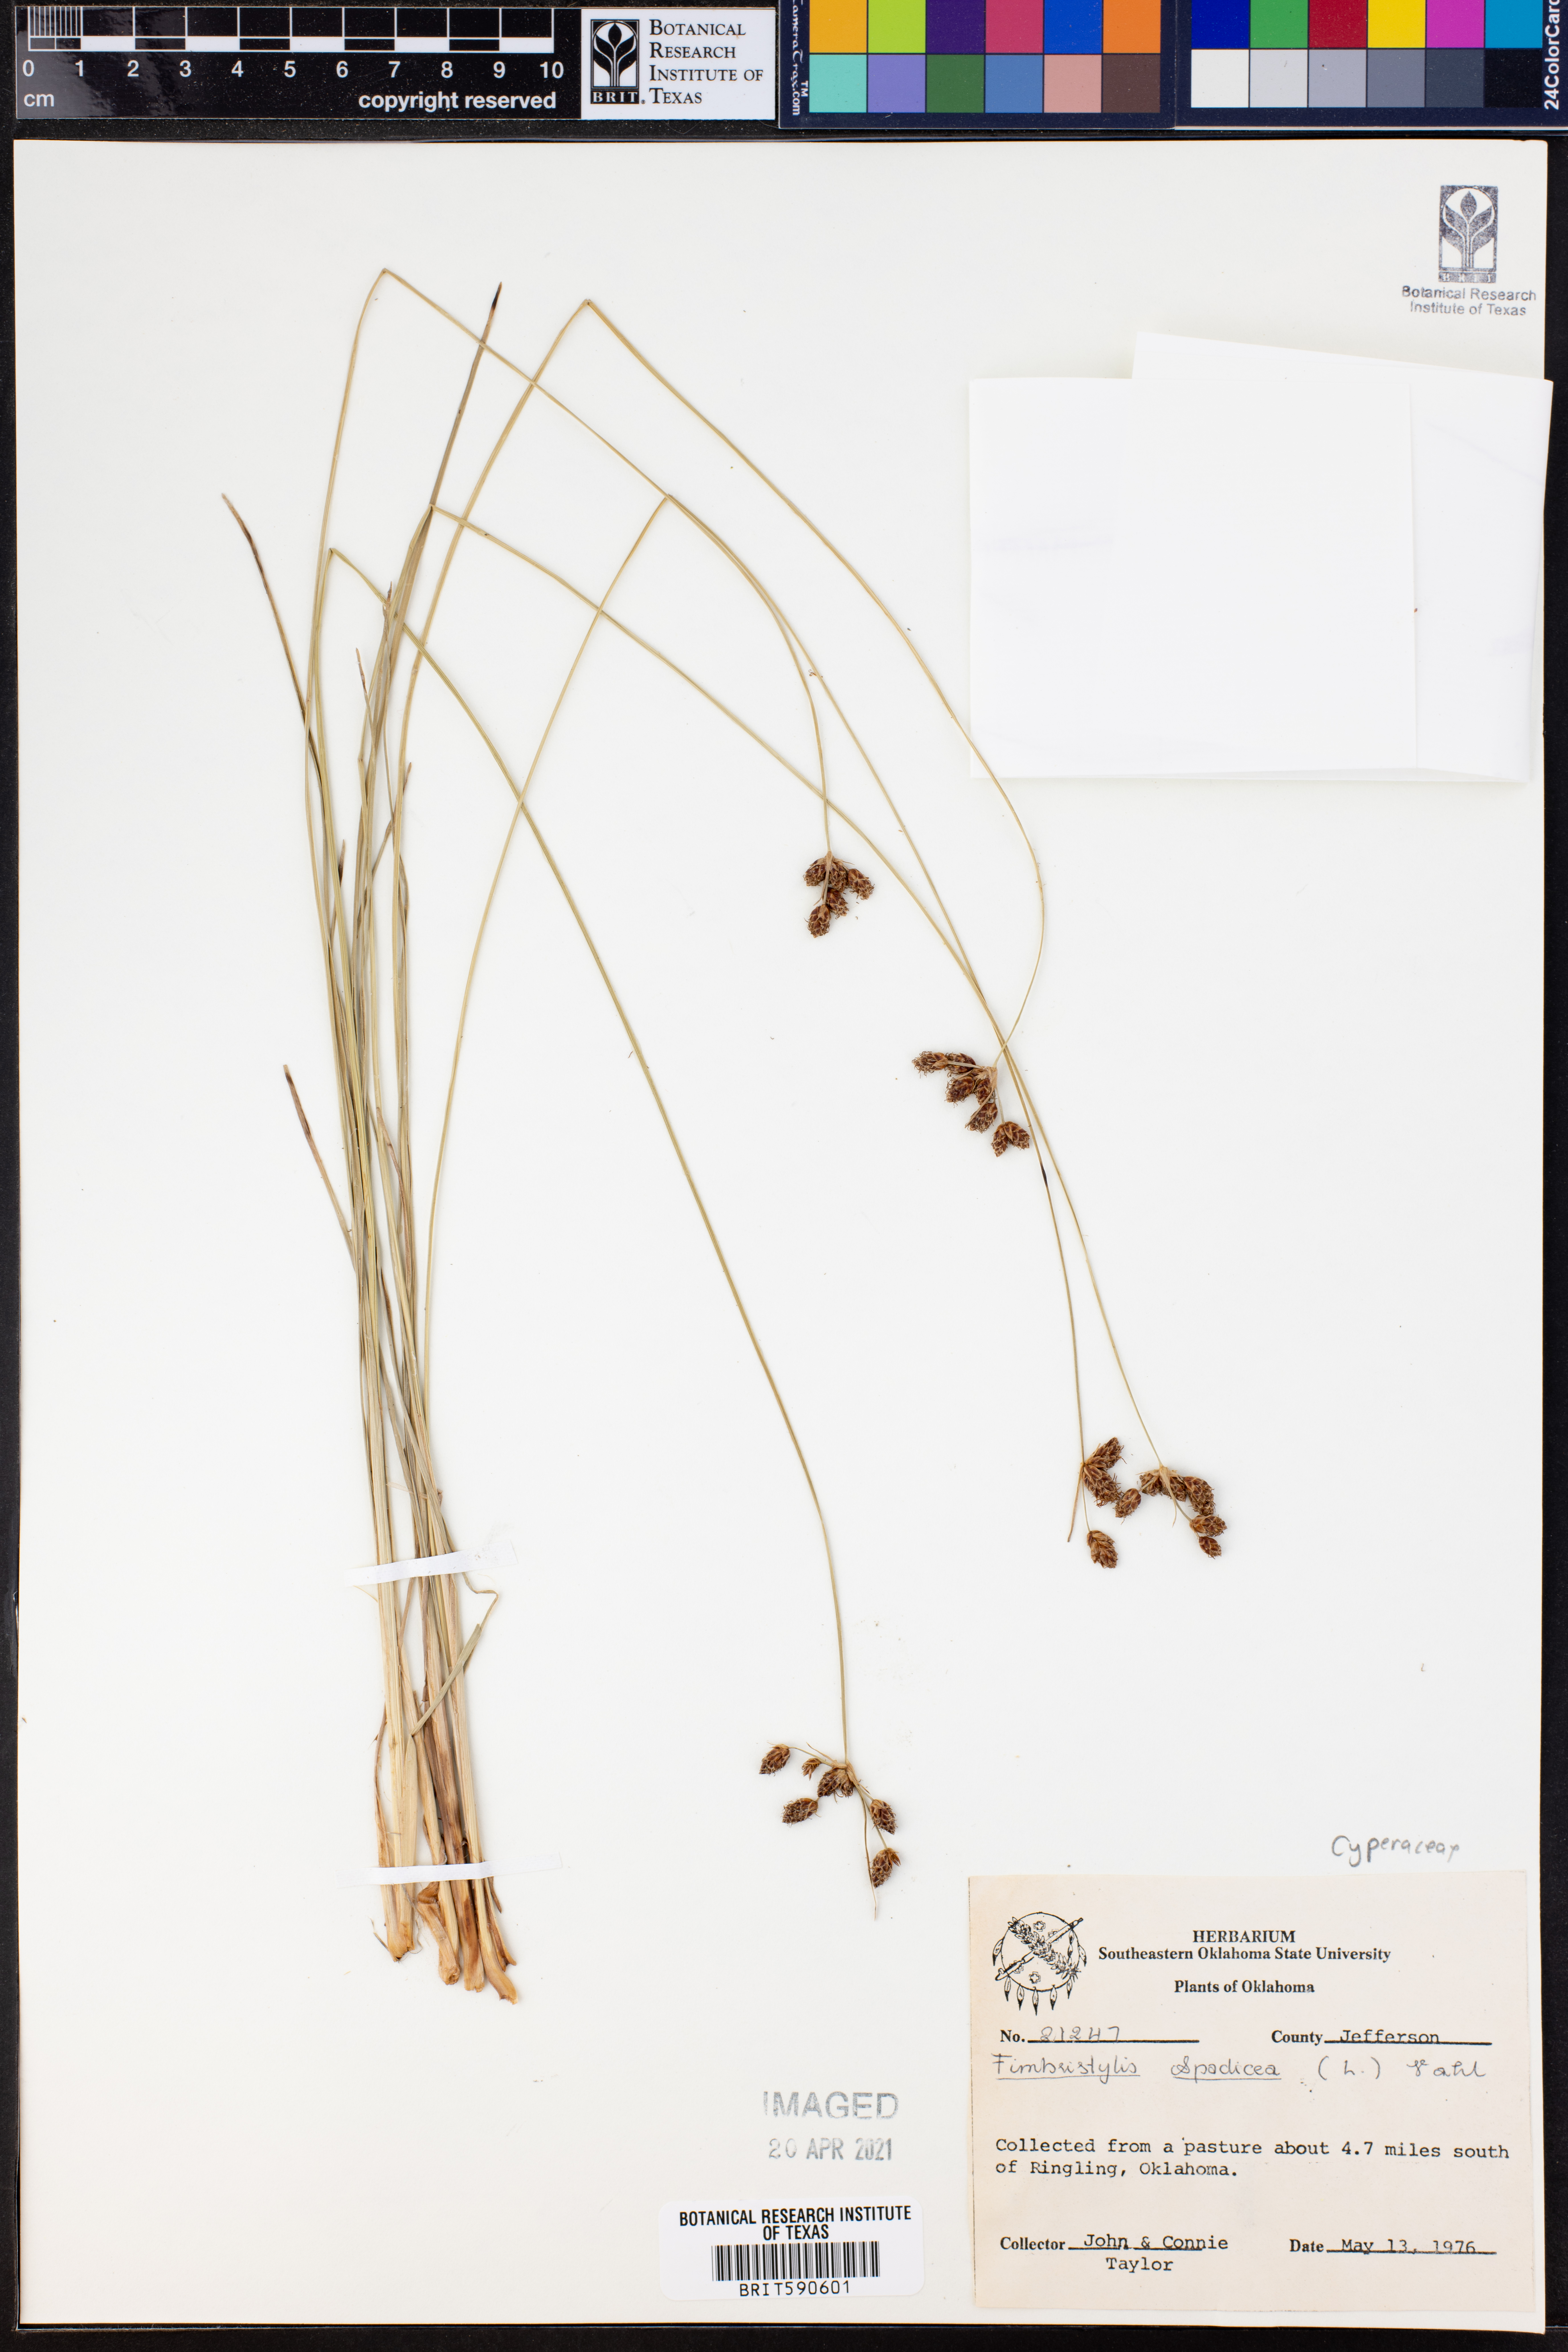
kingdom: Plantae
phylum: Tracheophyta
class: Liliopsida
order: Poales
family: Cyperaceae
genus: Fimbristylis
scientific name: Fimbristylis spadicea
